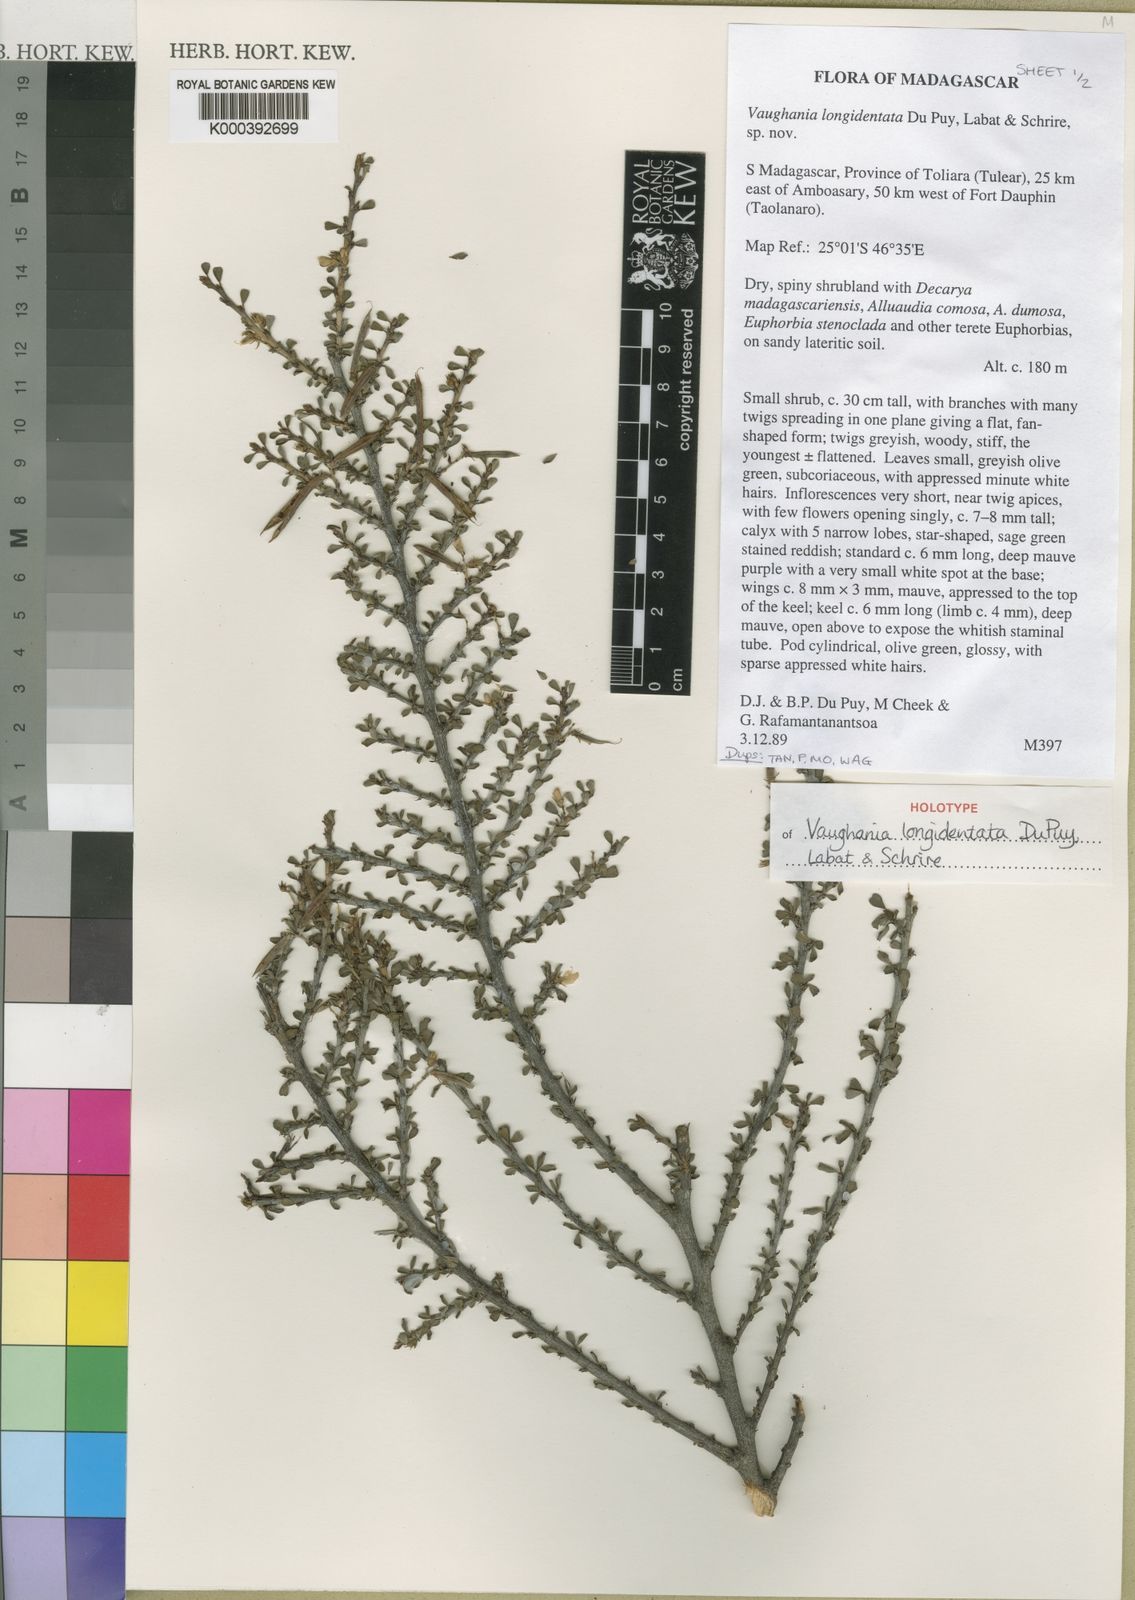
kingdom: Plantae
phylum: Tracheophyta
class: Magnoliopsida
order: Fabales
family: Fabaceae
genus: Indigofera
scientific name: Indigofera longidentata
